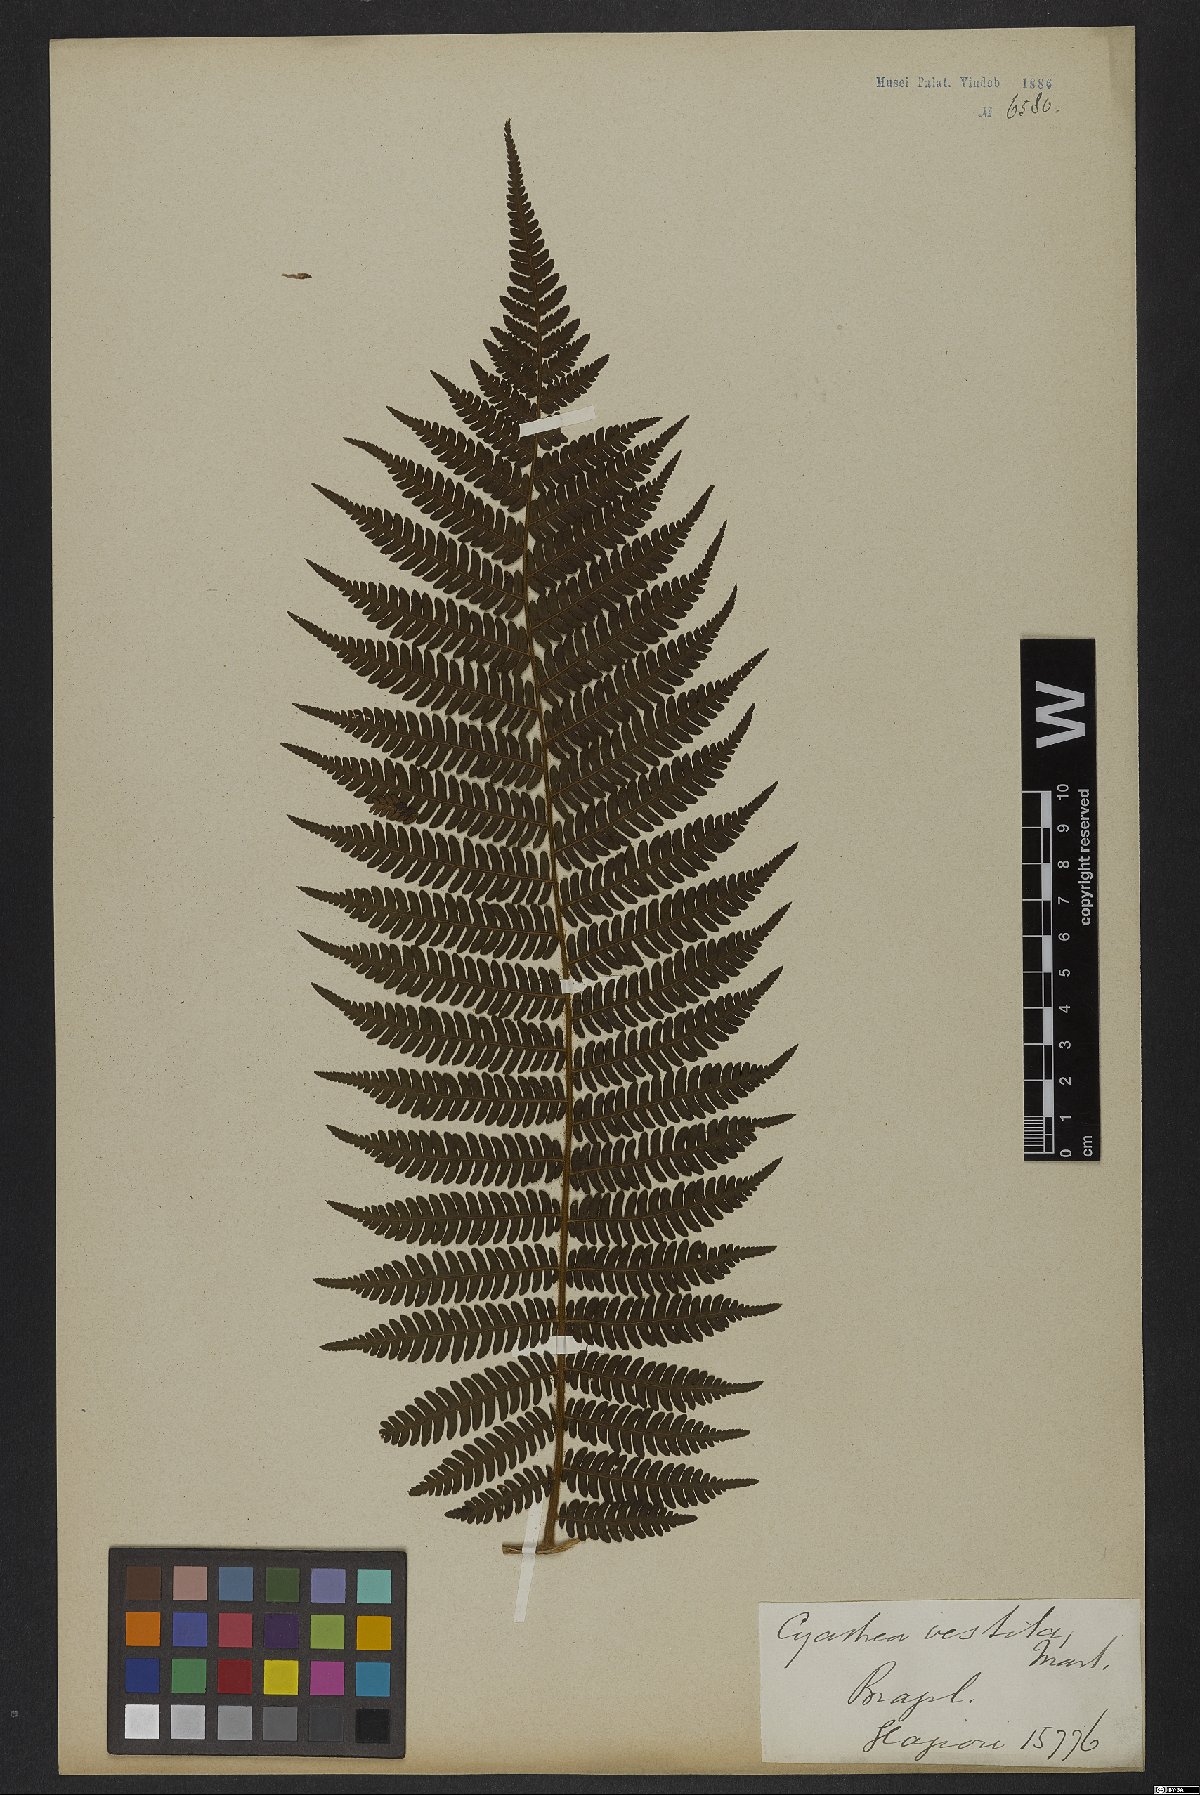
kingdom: Plantae
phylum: Tracheophyta
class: Polypodiopsida
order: Cyatheales
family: Cyatheaceae
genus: Cyathea
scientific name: Cyathea delgadii
